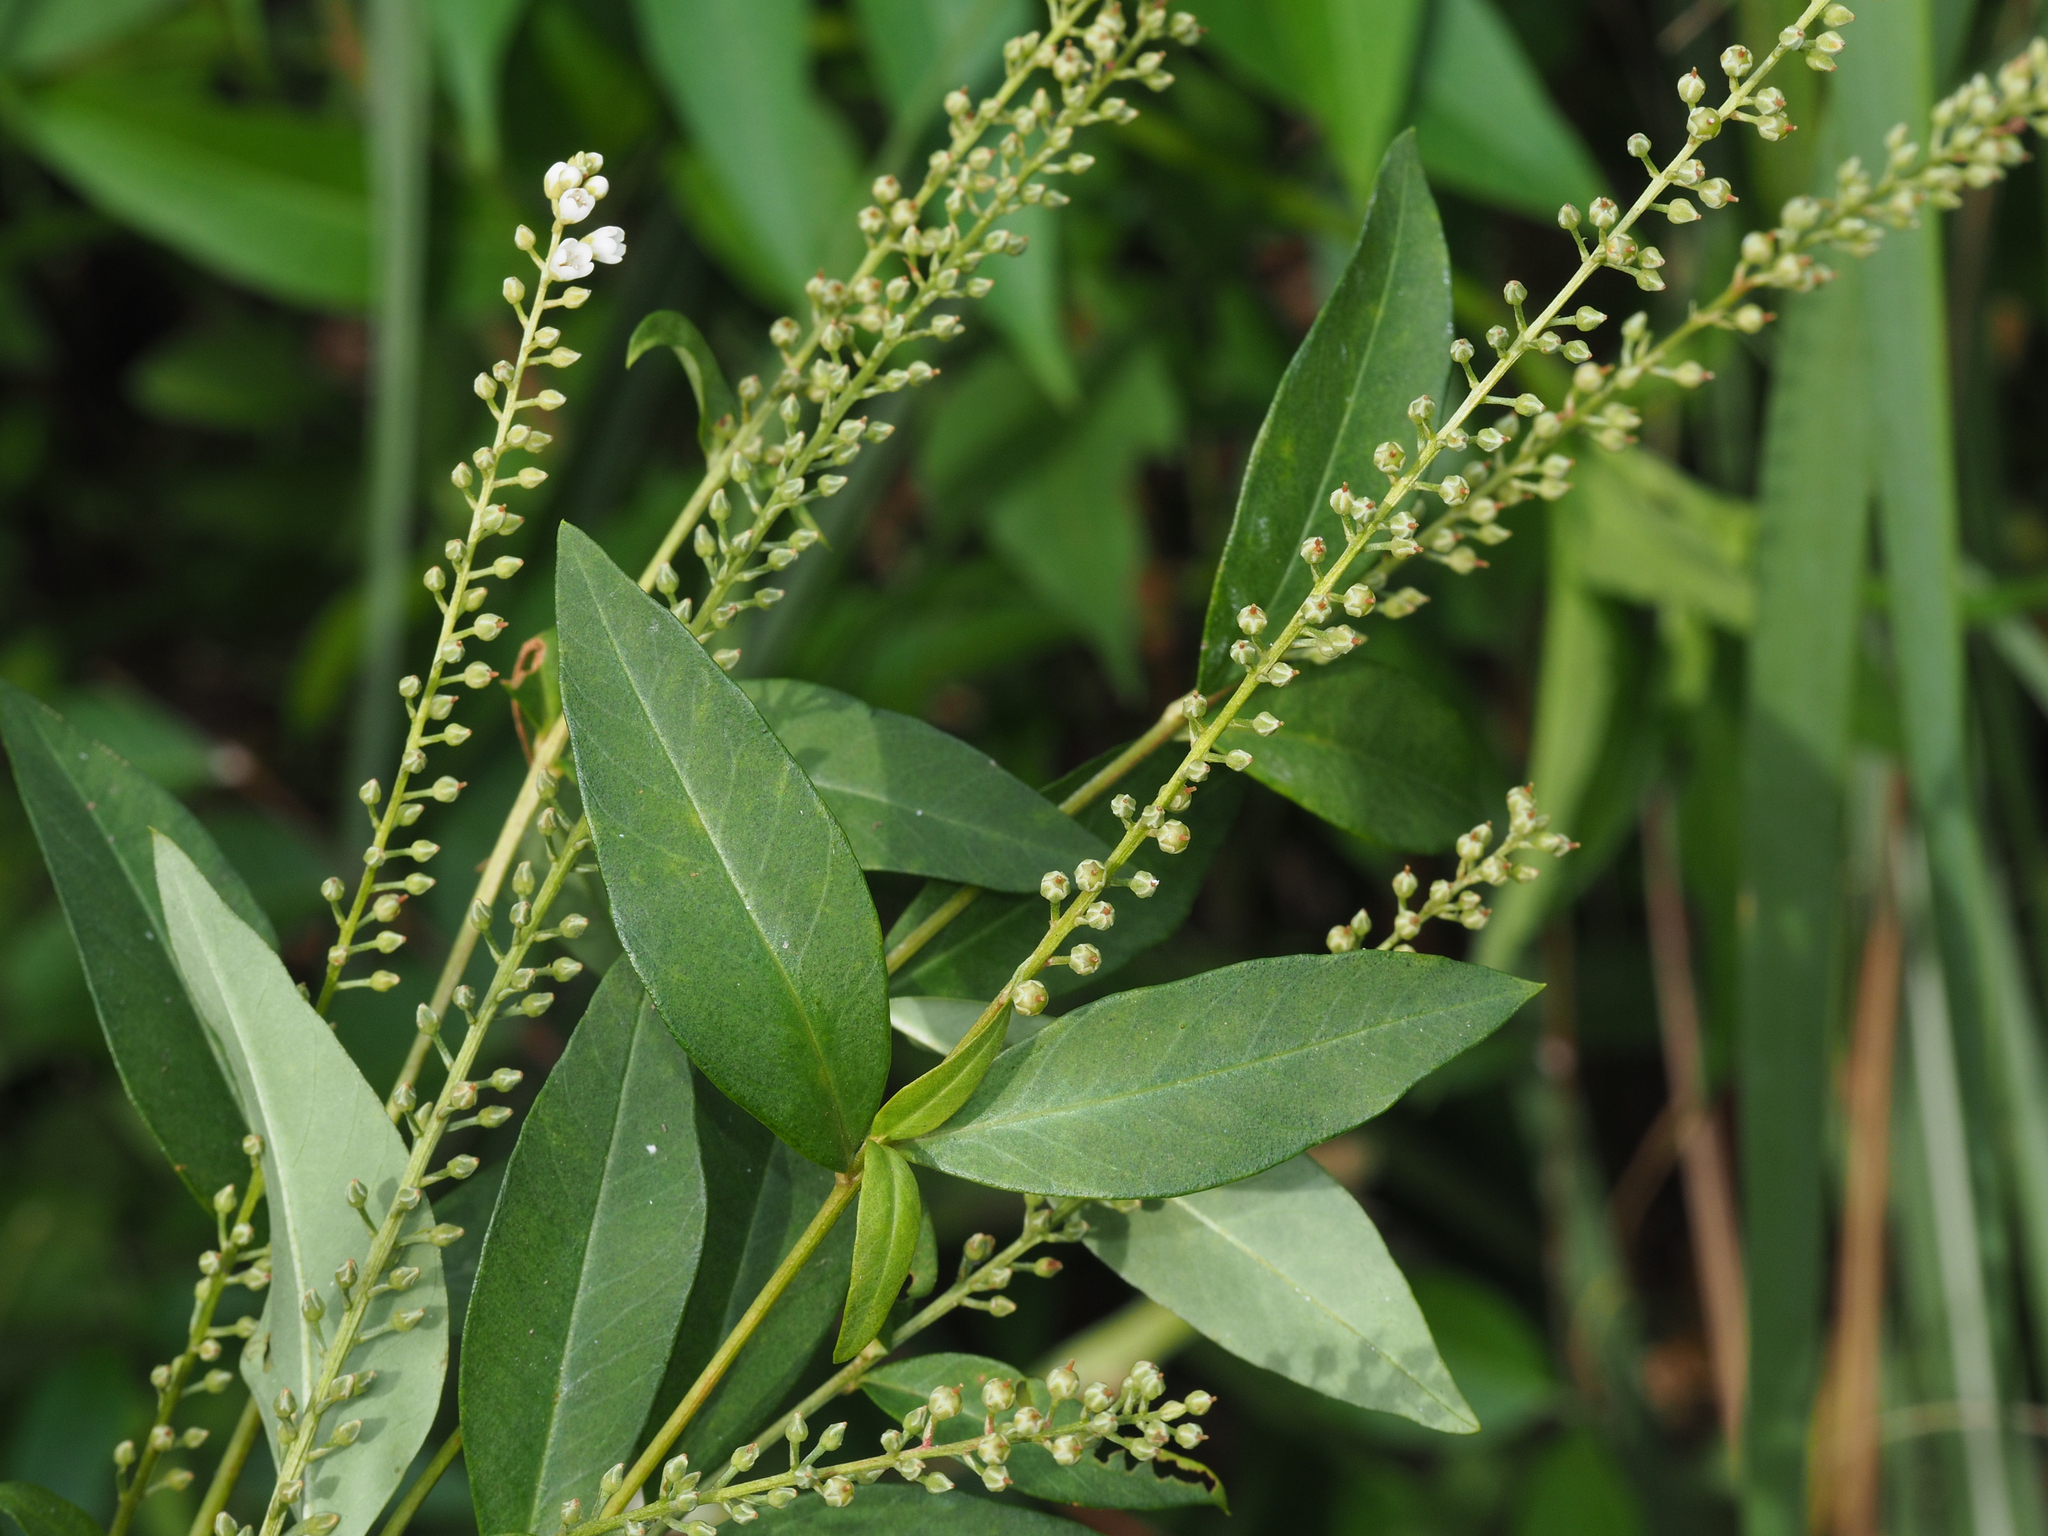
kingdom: Plantae
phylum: Tracheophyta
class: Magnoliopsida
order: Ericales
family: Primulaceae
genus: Lysimachia
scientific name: Lysimachia fortunei
